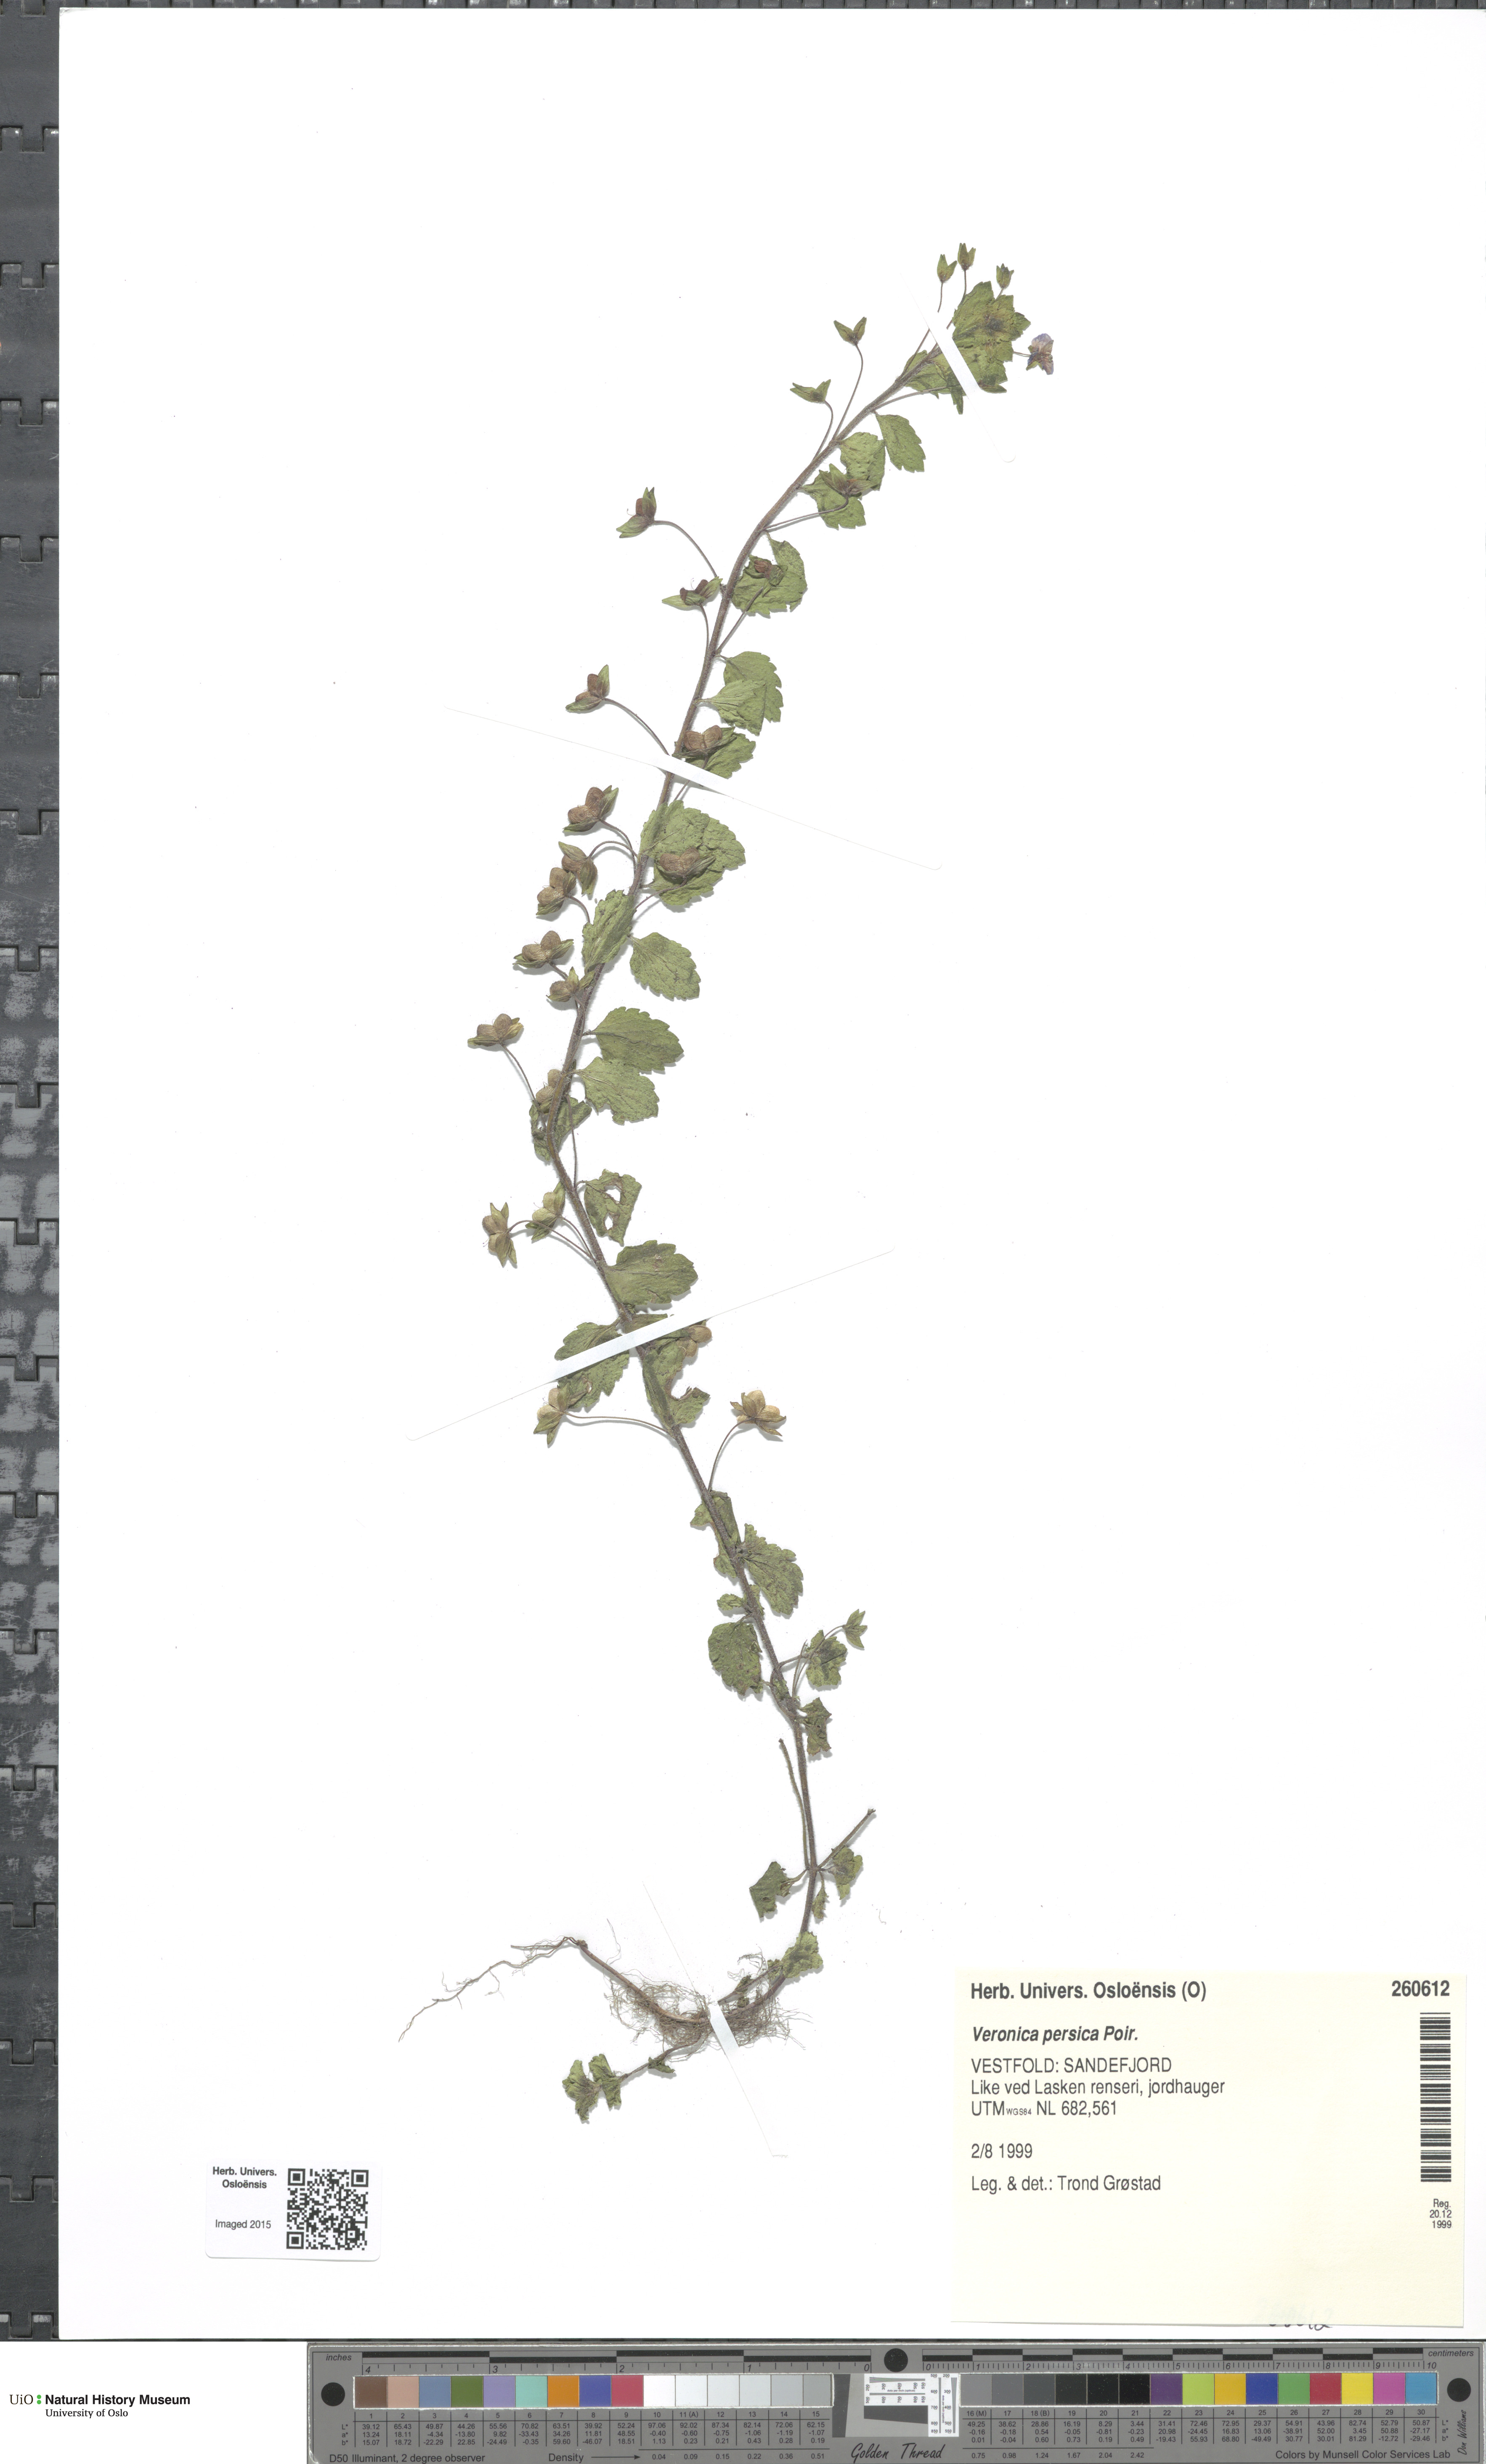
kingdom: Plantae
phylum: Tracheophyta
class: Magnoliopsida
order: Lamiales
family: Plantaginaceae
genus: Veronica
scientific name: Veronica persica
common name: Common field-speedwell
